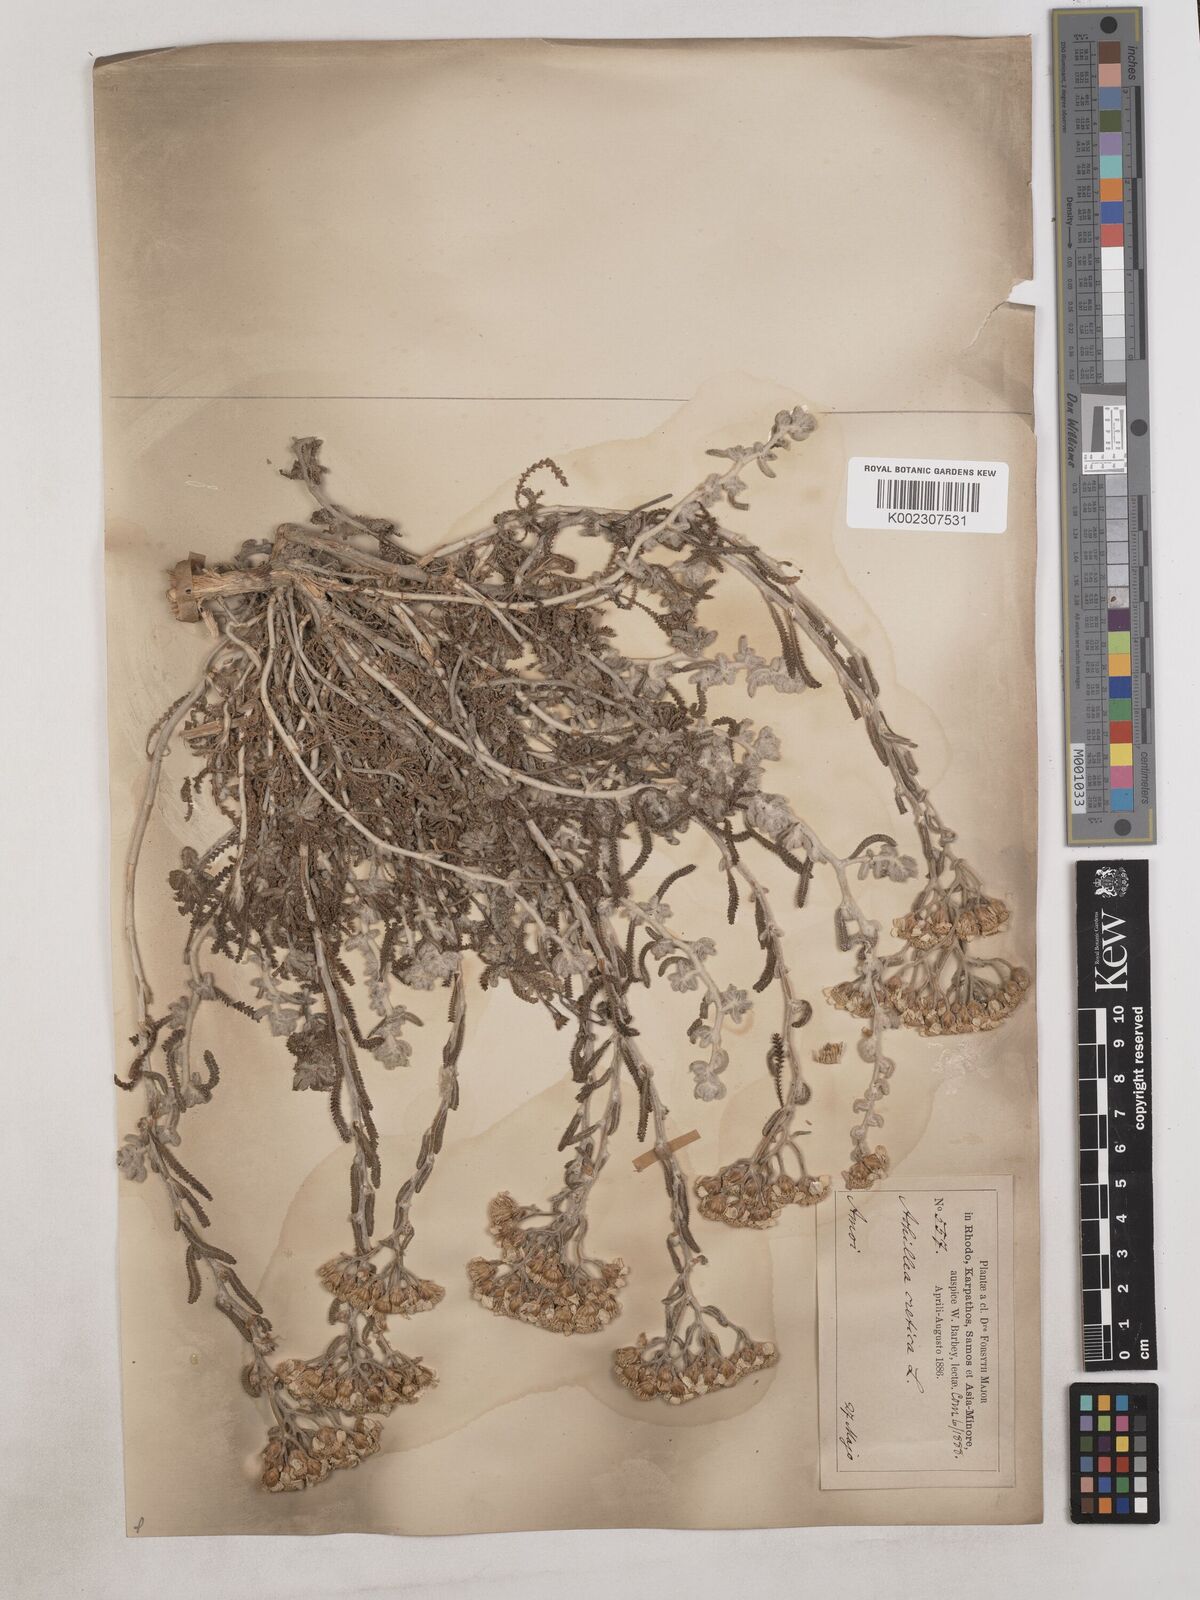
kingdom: Plantae
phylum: Tracheophyta
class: Magnoliopsida
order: Asterales
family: Asteraceae
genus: Achillea
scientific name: Achillea cretica
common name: Chamomile-leaved lavender-cotton
